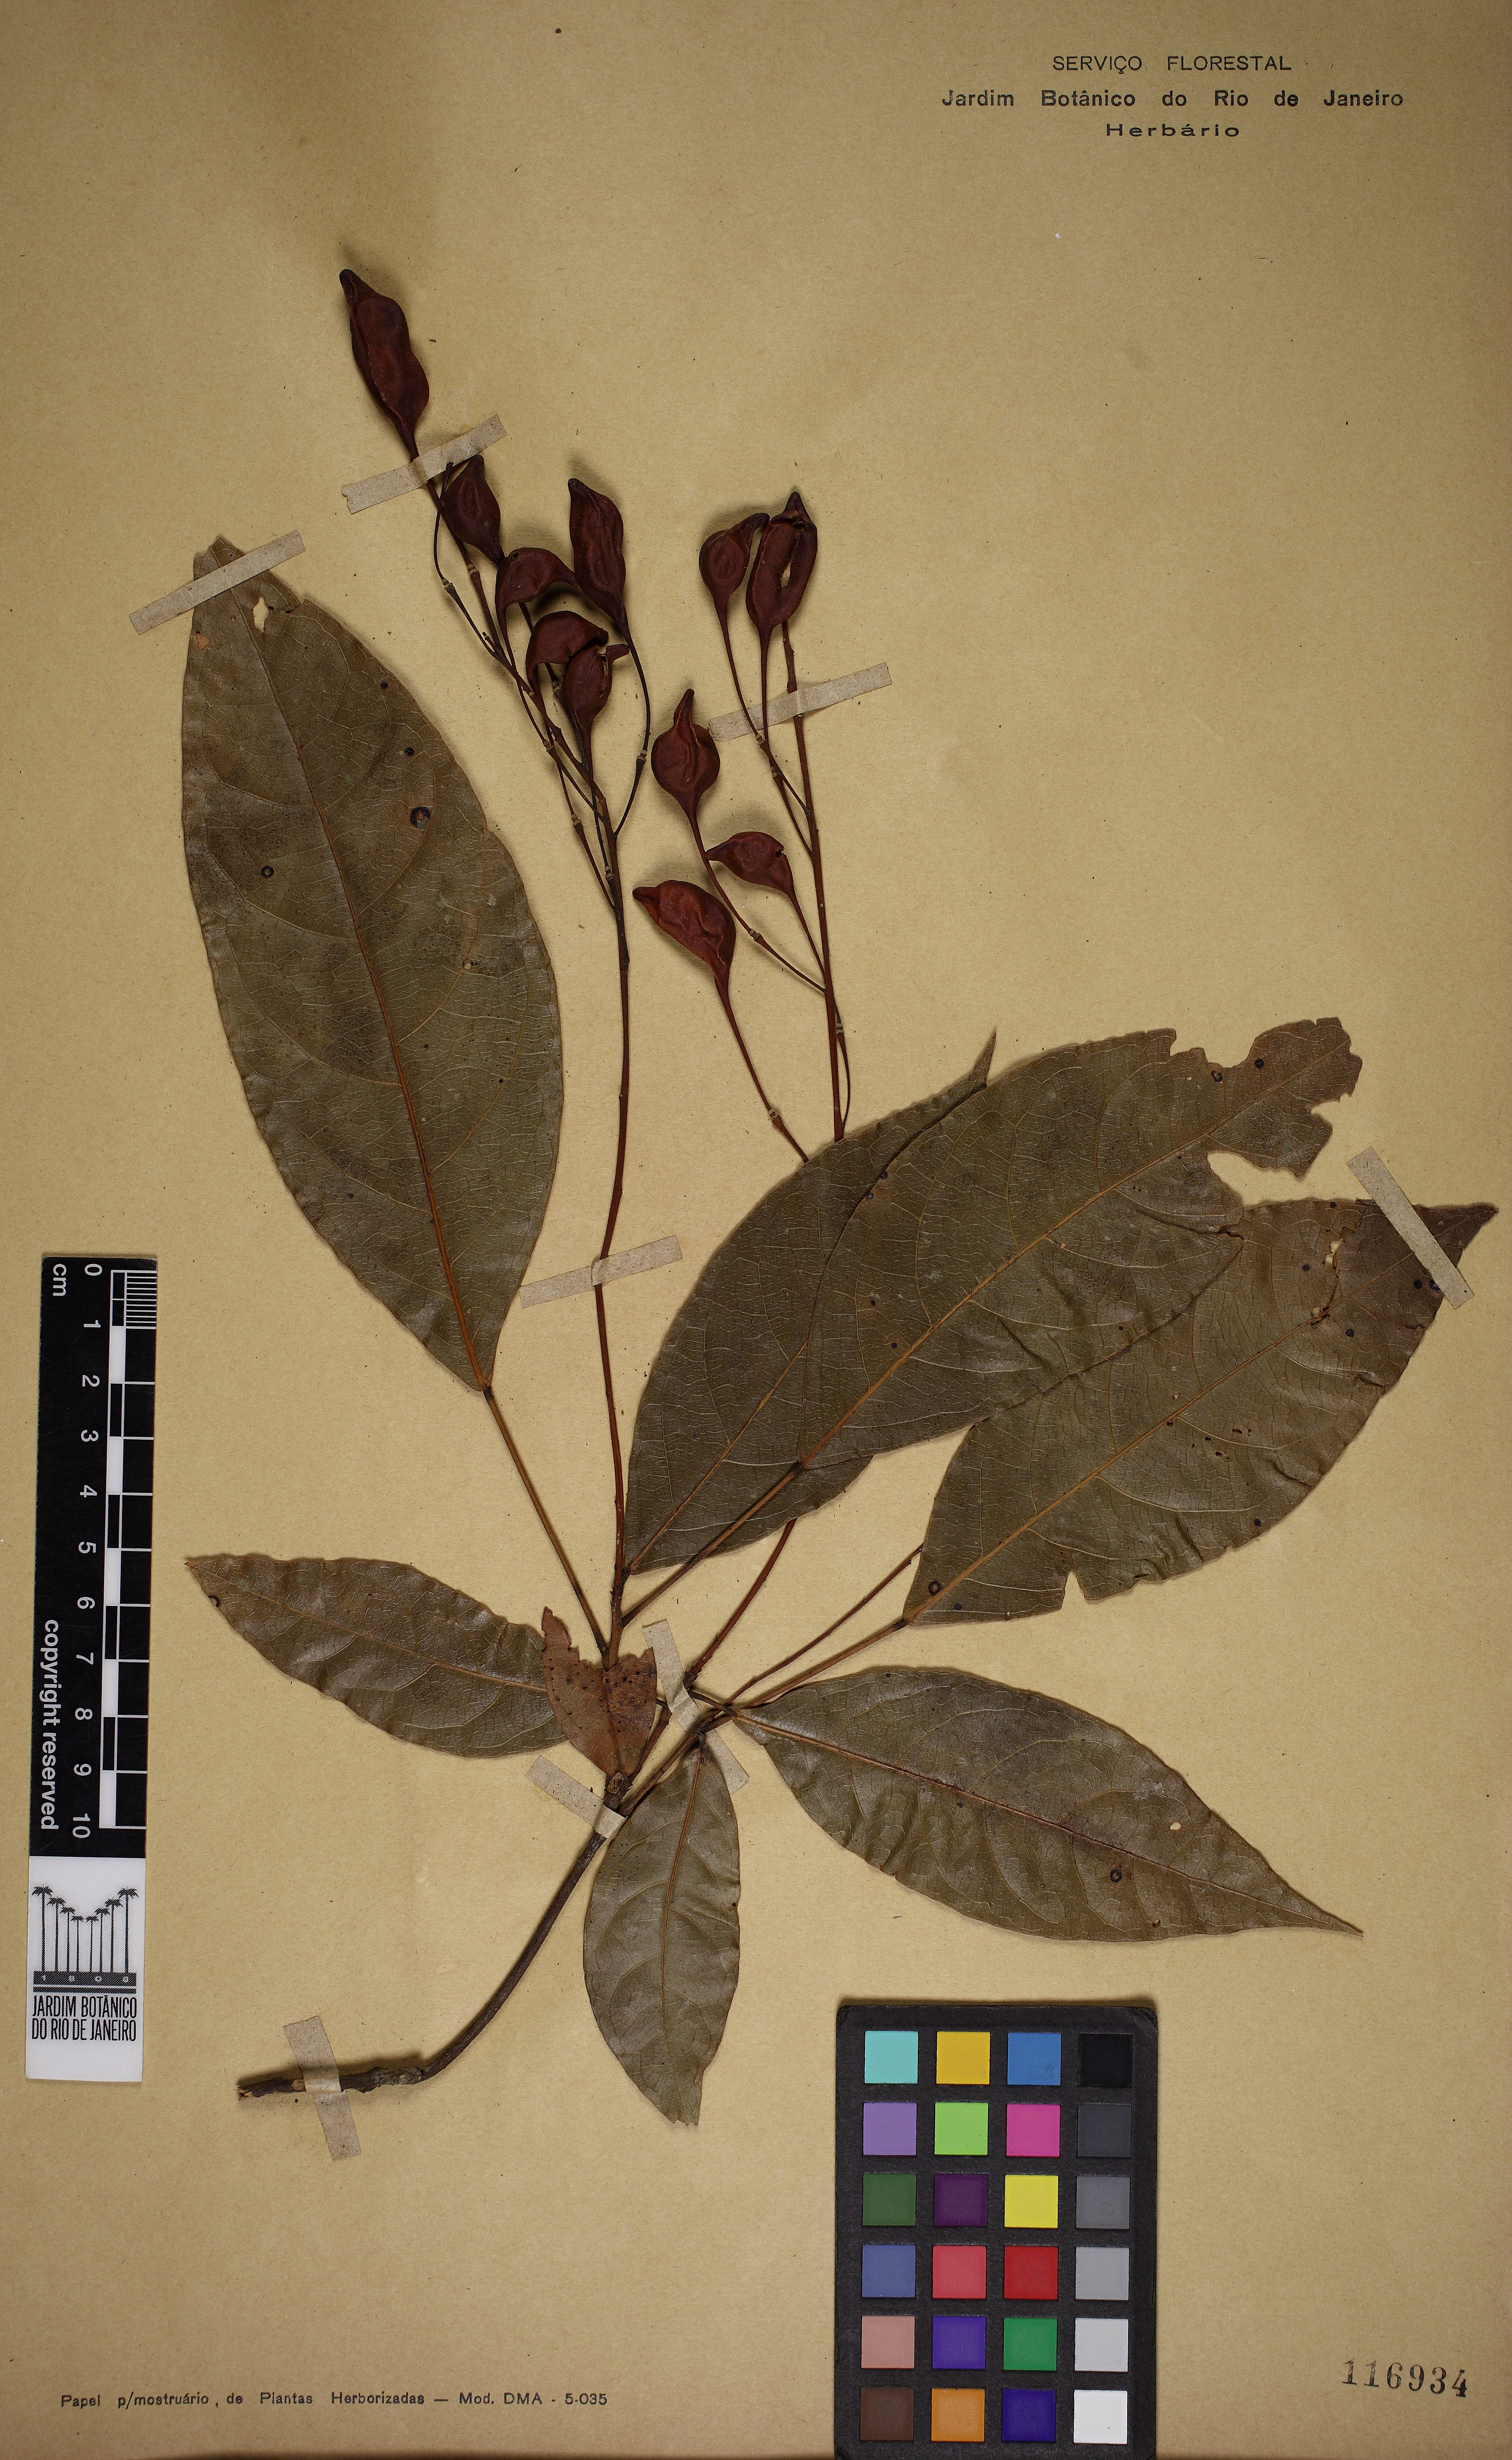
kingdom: Plantae
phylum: Tracheophyta
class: Magnoliopsida
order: Brassicales
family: Capparaceae
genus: Capparidastrum
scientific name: Capparidastrum solum
